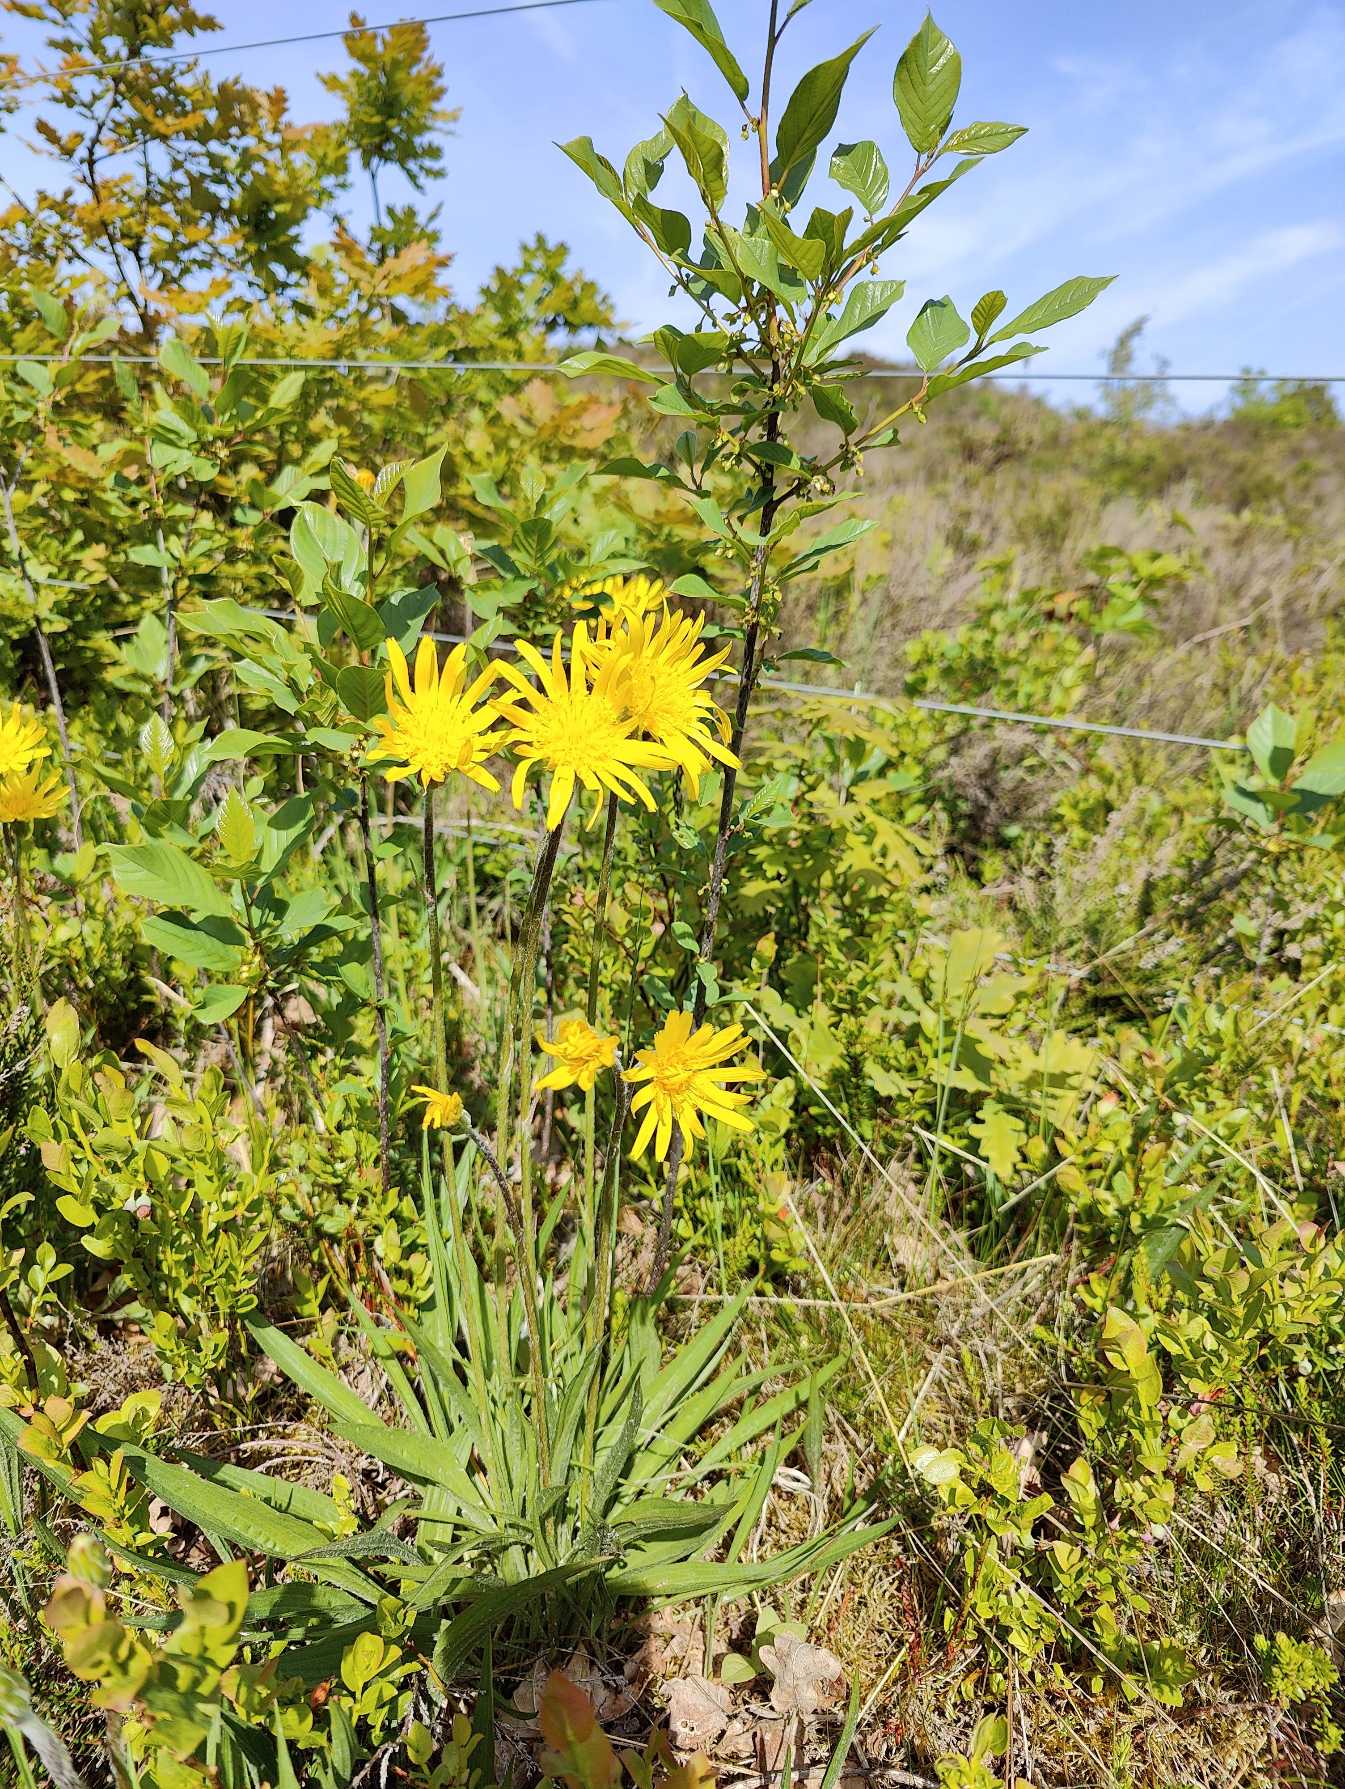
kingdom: Plantae
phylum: Tracheophyta
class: Magnoliopsida
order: Asterales
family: Asteraceae
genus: Scorzonera
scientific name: Scorzonera humilis
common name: Lav skorsoner
